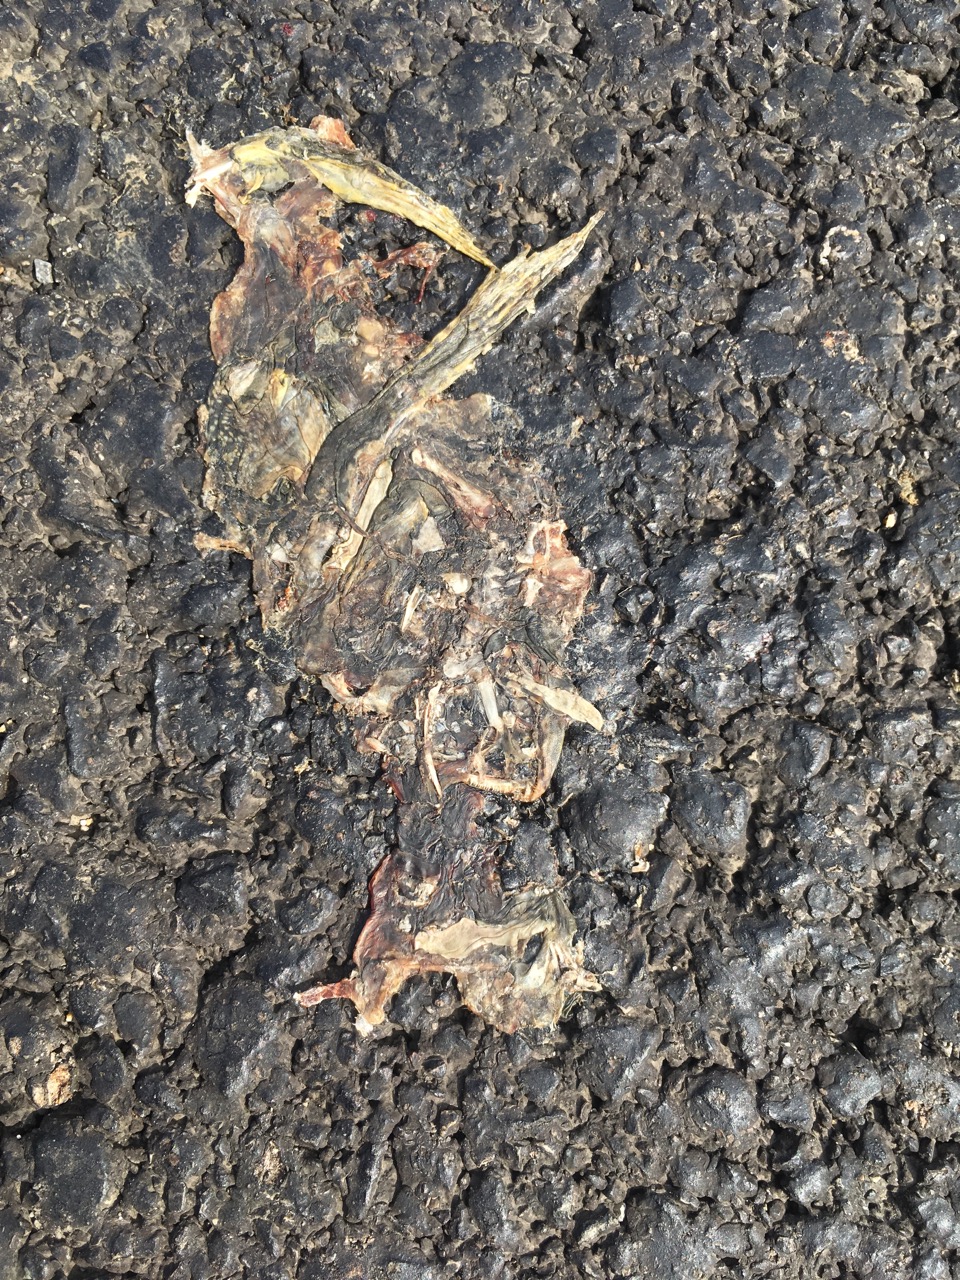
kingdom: Animalia
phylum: Chordata
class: Amphibia
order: Anura
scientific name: Anura
